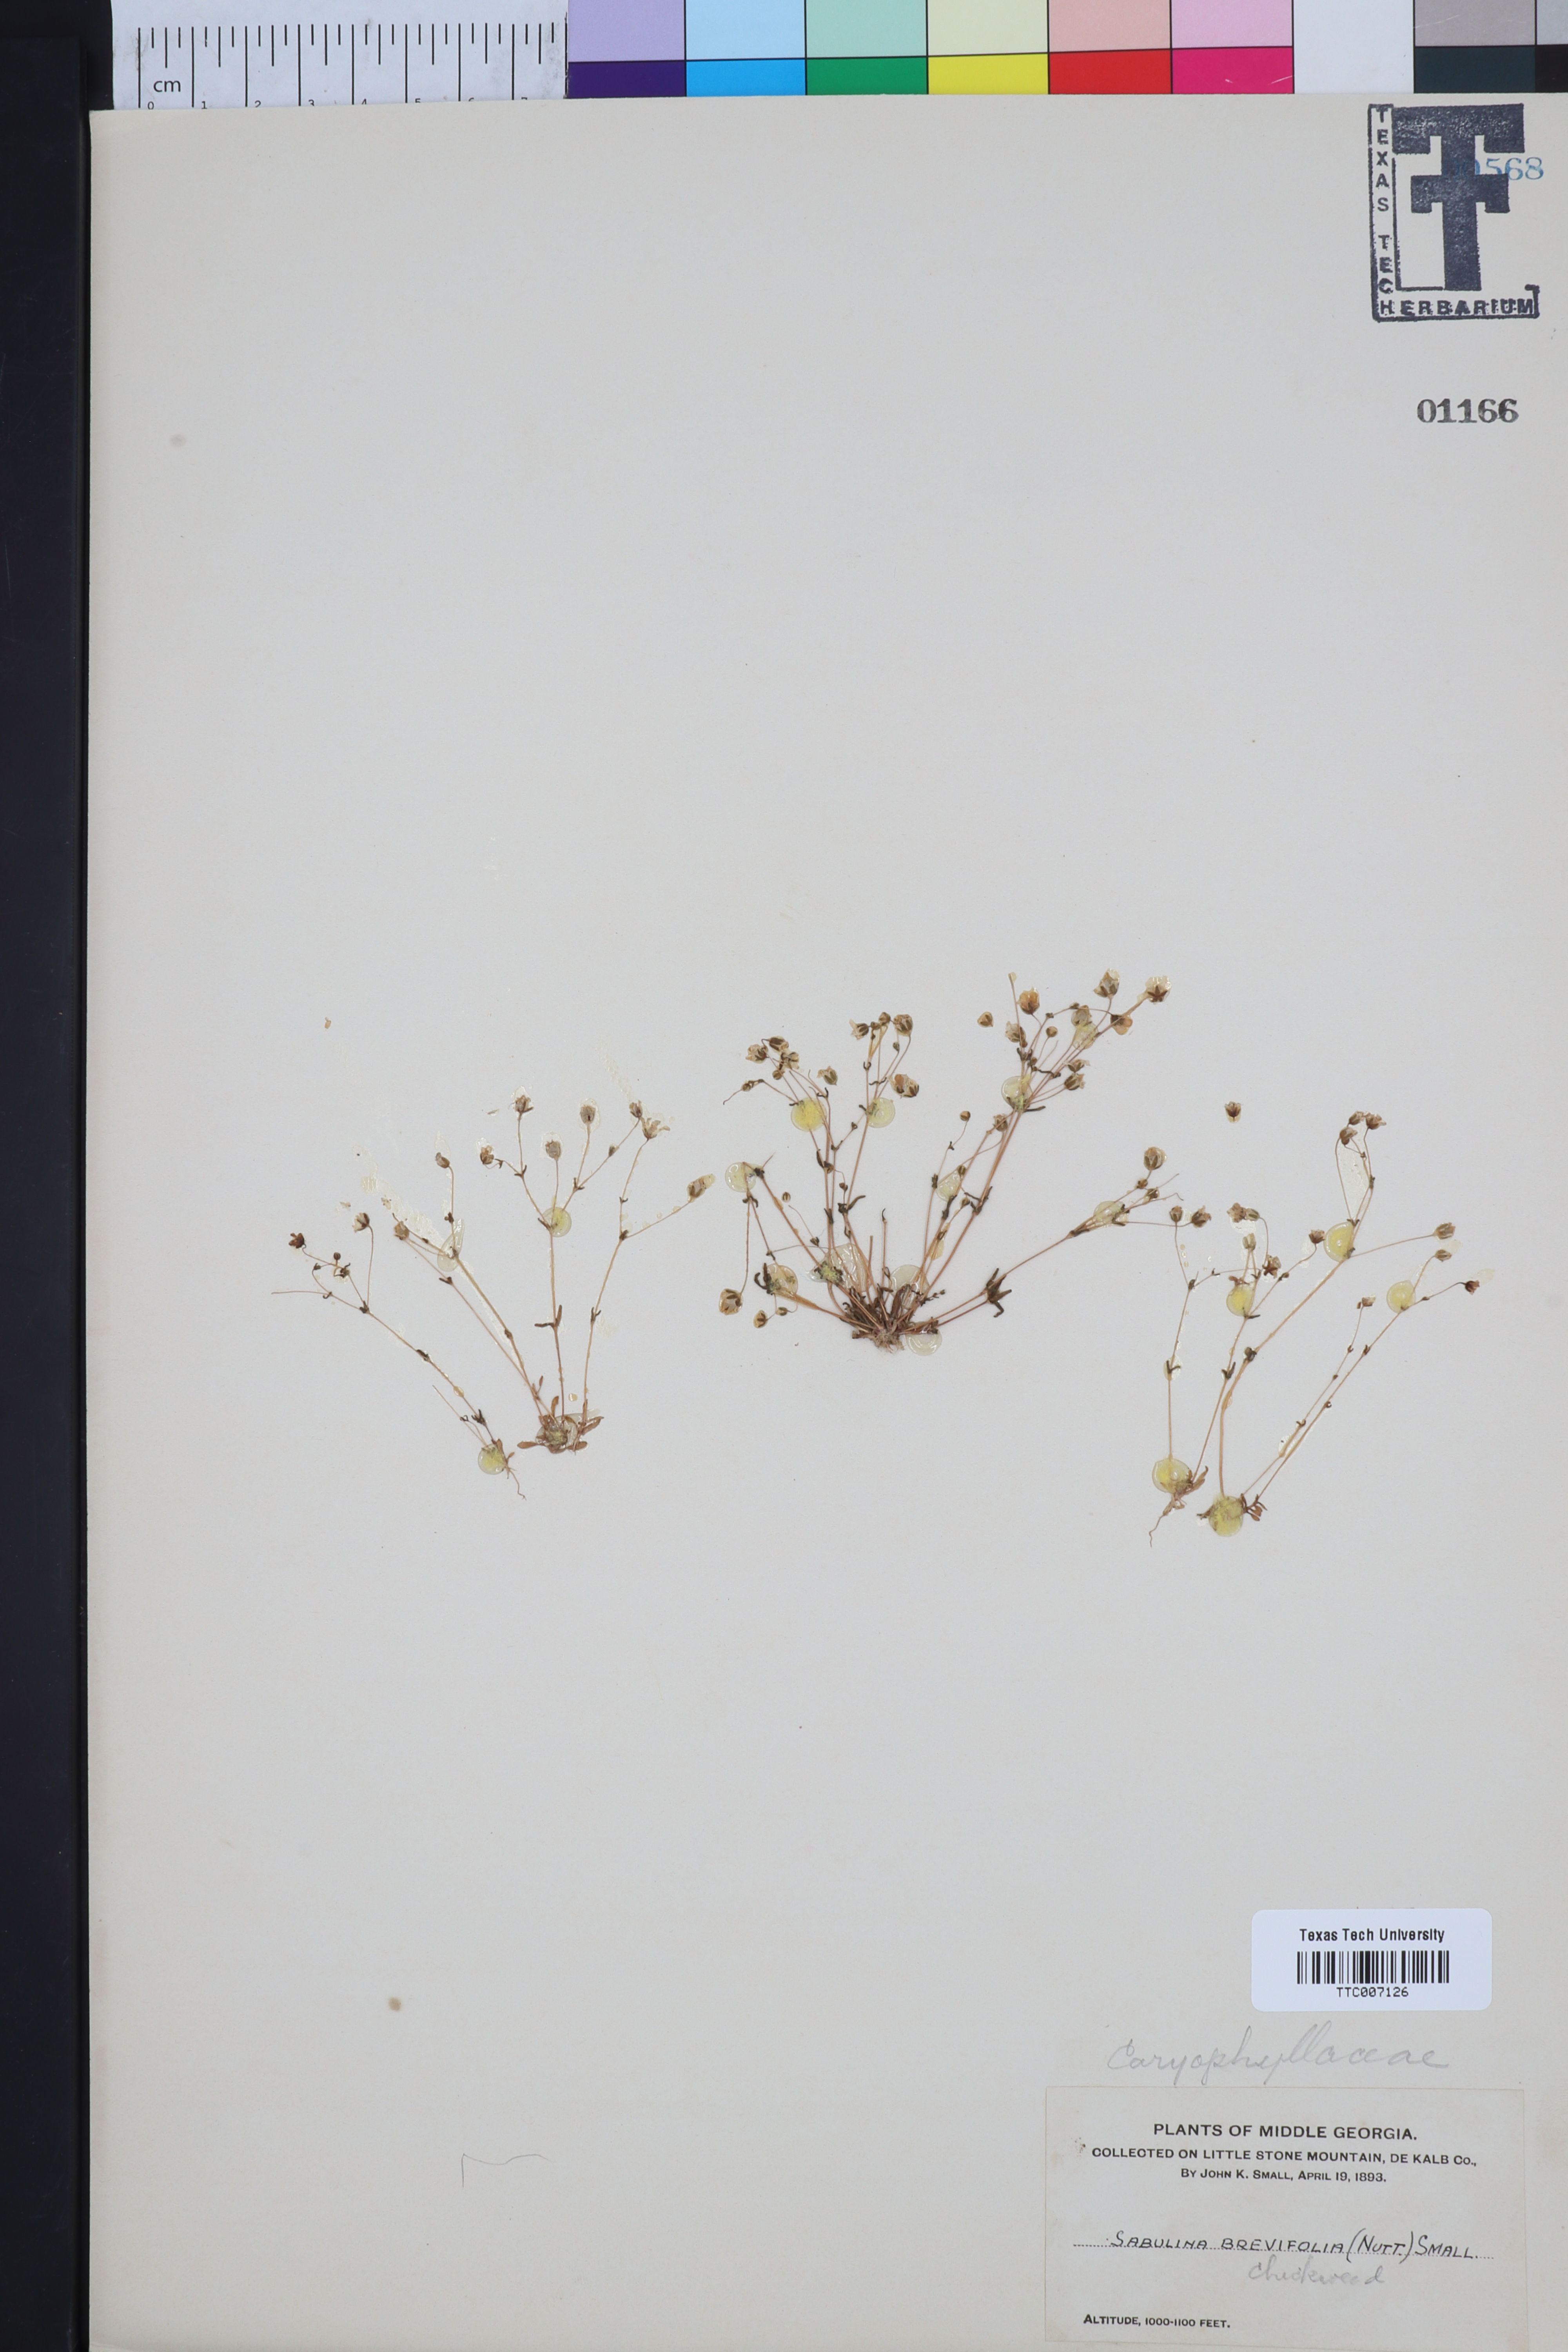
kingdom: Plantae
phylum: Tracheophyta
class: Magnoliopsida
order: Caryophyllales
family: Caryophyllaceae
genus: Geocarpon
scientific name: Geocarpon uniflorum
